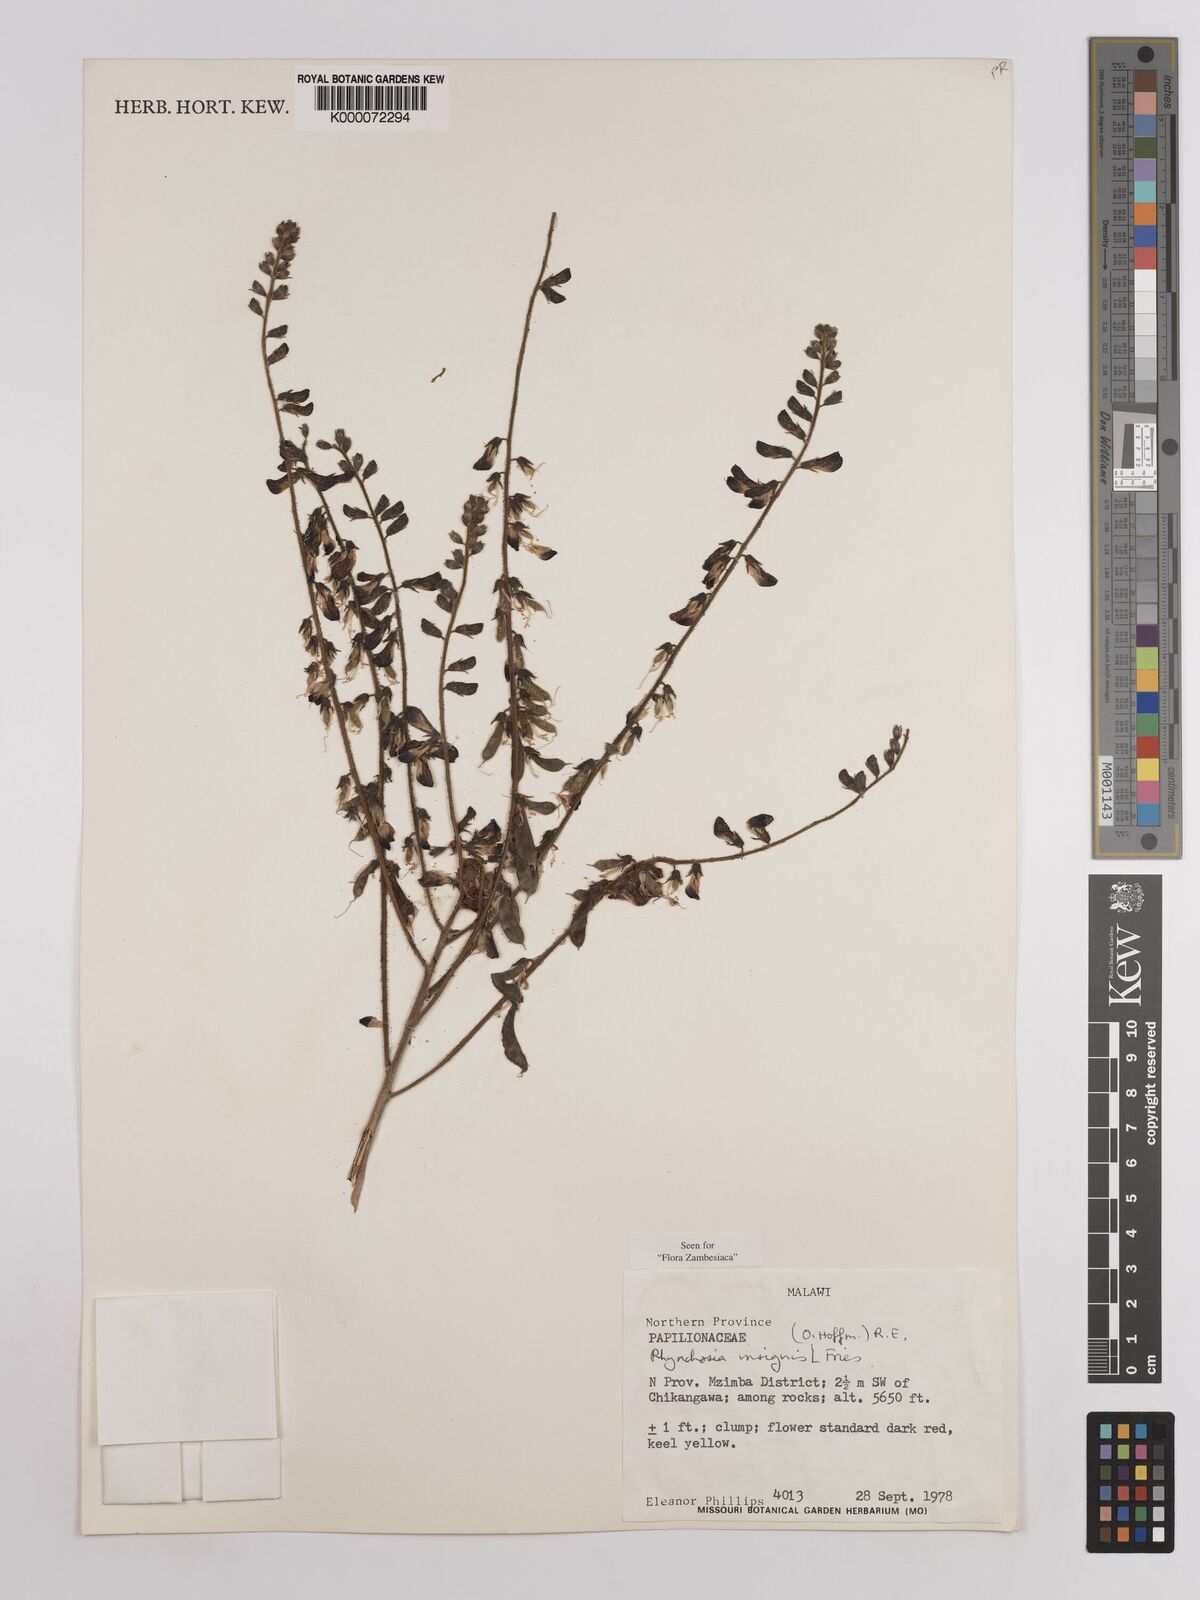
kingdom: Plantae
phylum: Tracheophyta
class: Magnoliopsida
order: Fabales
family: Fabaceae
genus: Rhynchosia
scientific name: Rhynchosia insignis
